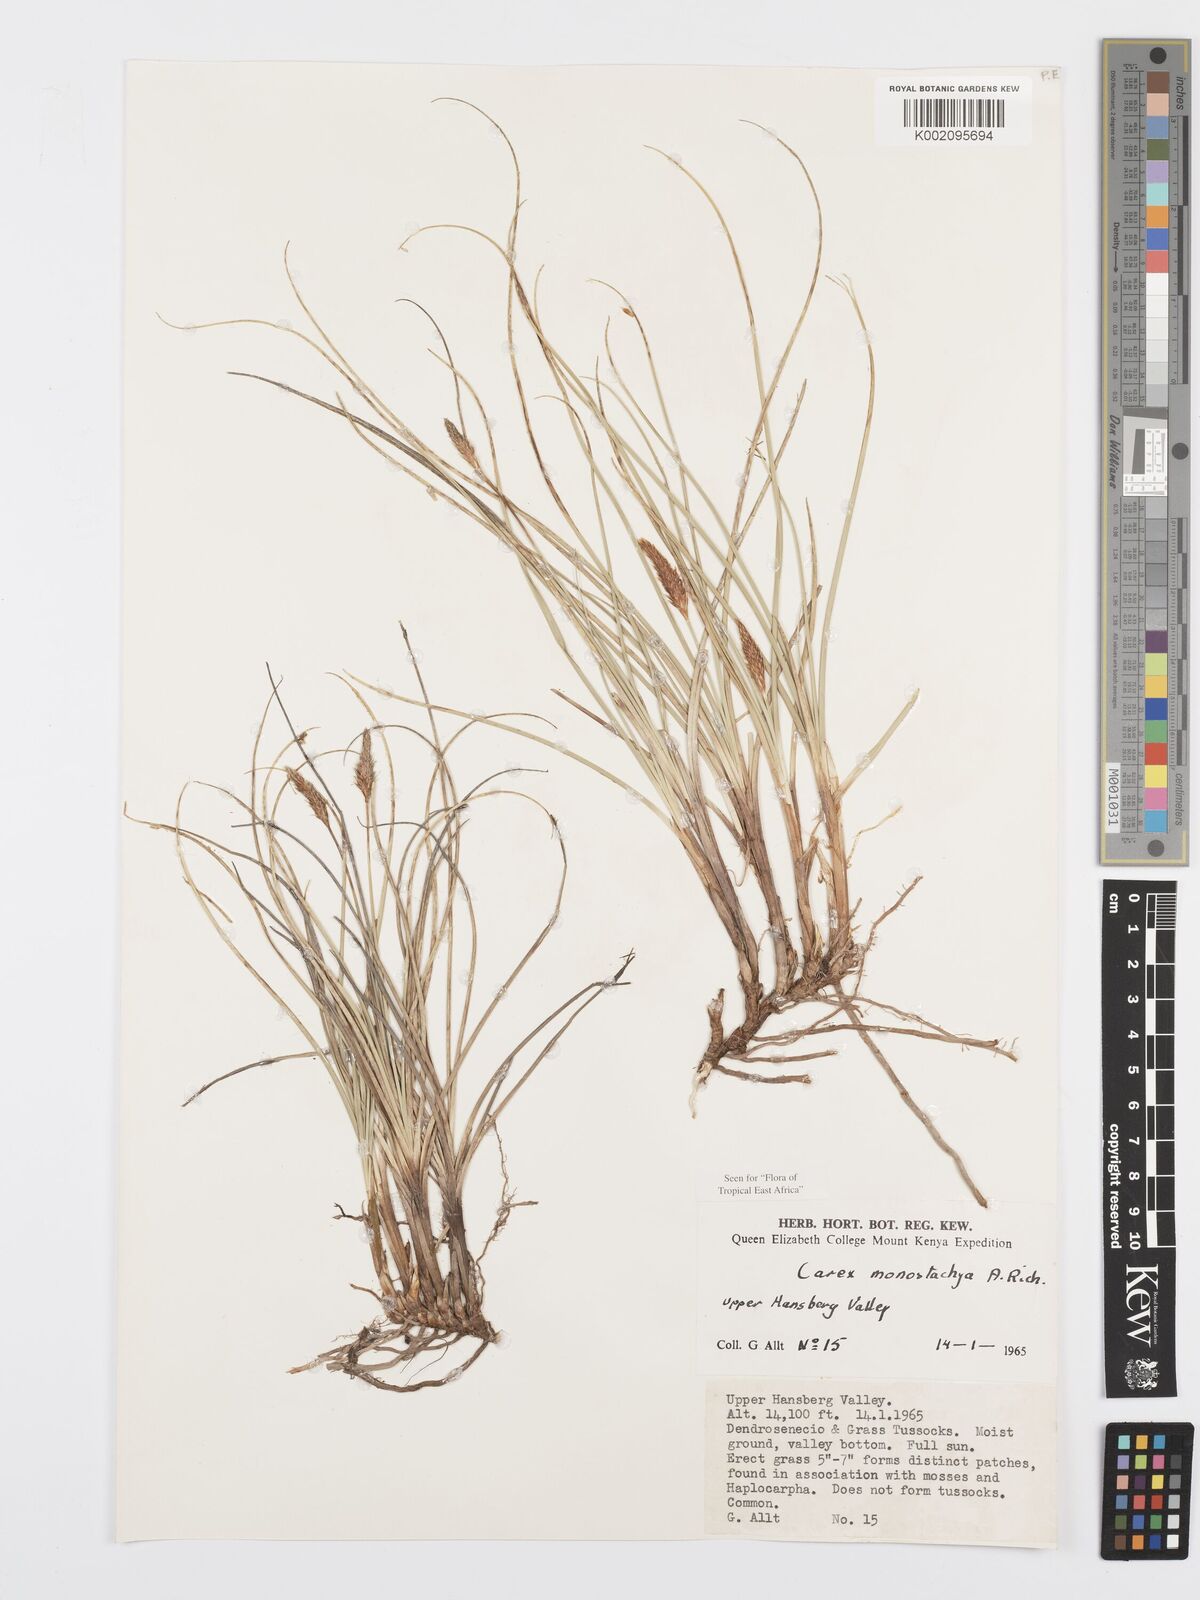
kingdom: Plantae
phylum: Tracheophyta
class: Liliopsida
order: Poales
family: Cyperaceae
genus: Carex
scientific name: Carex monostachya
